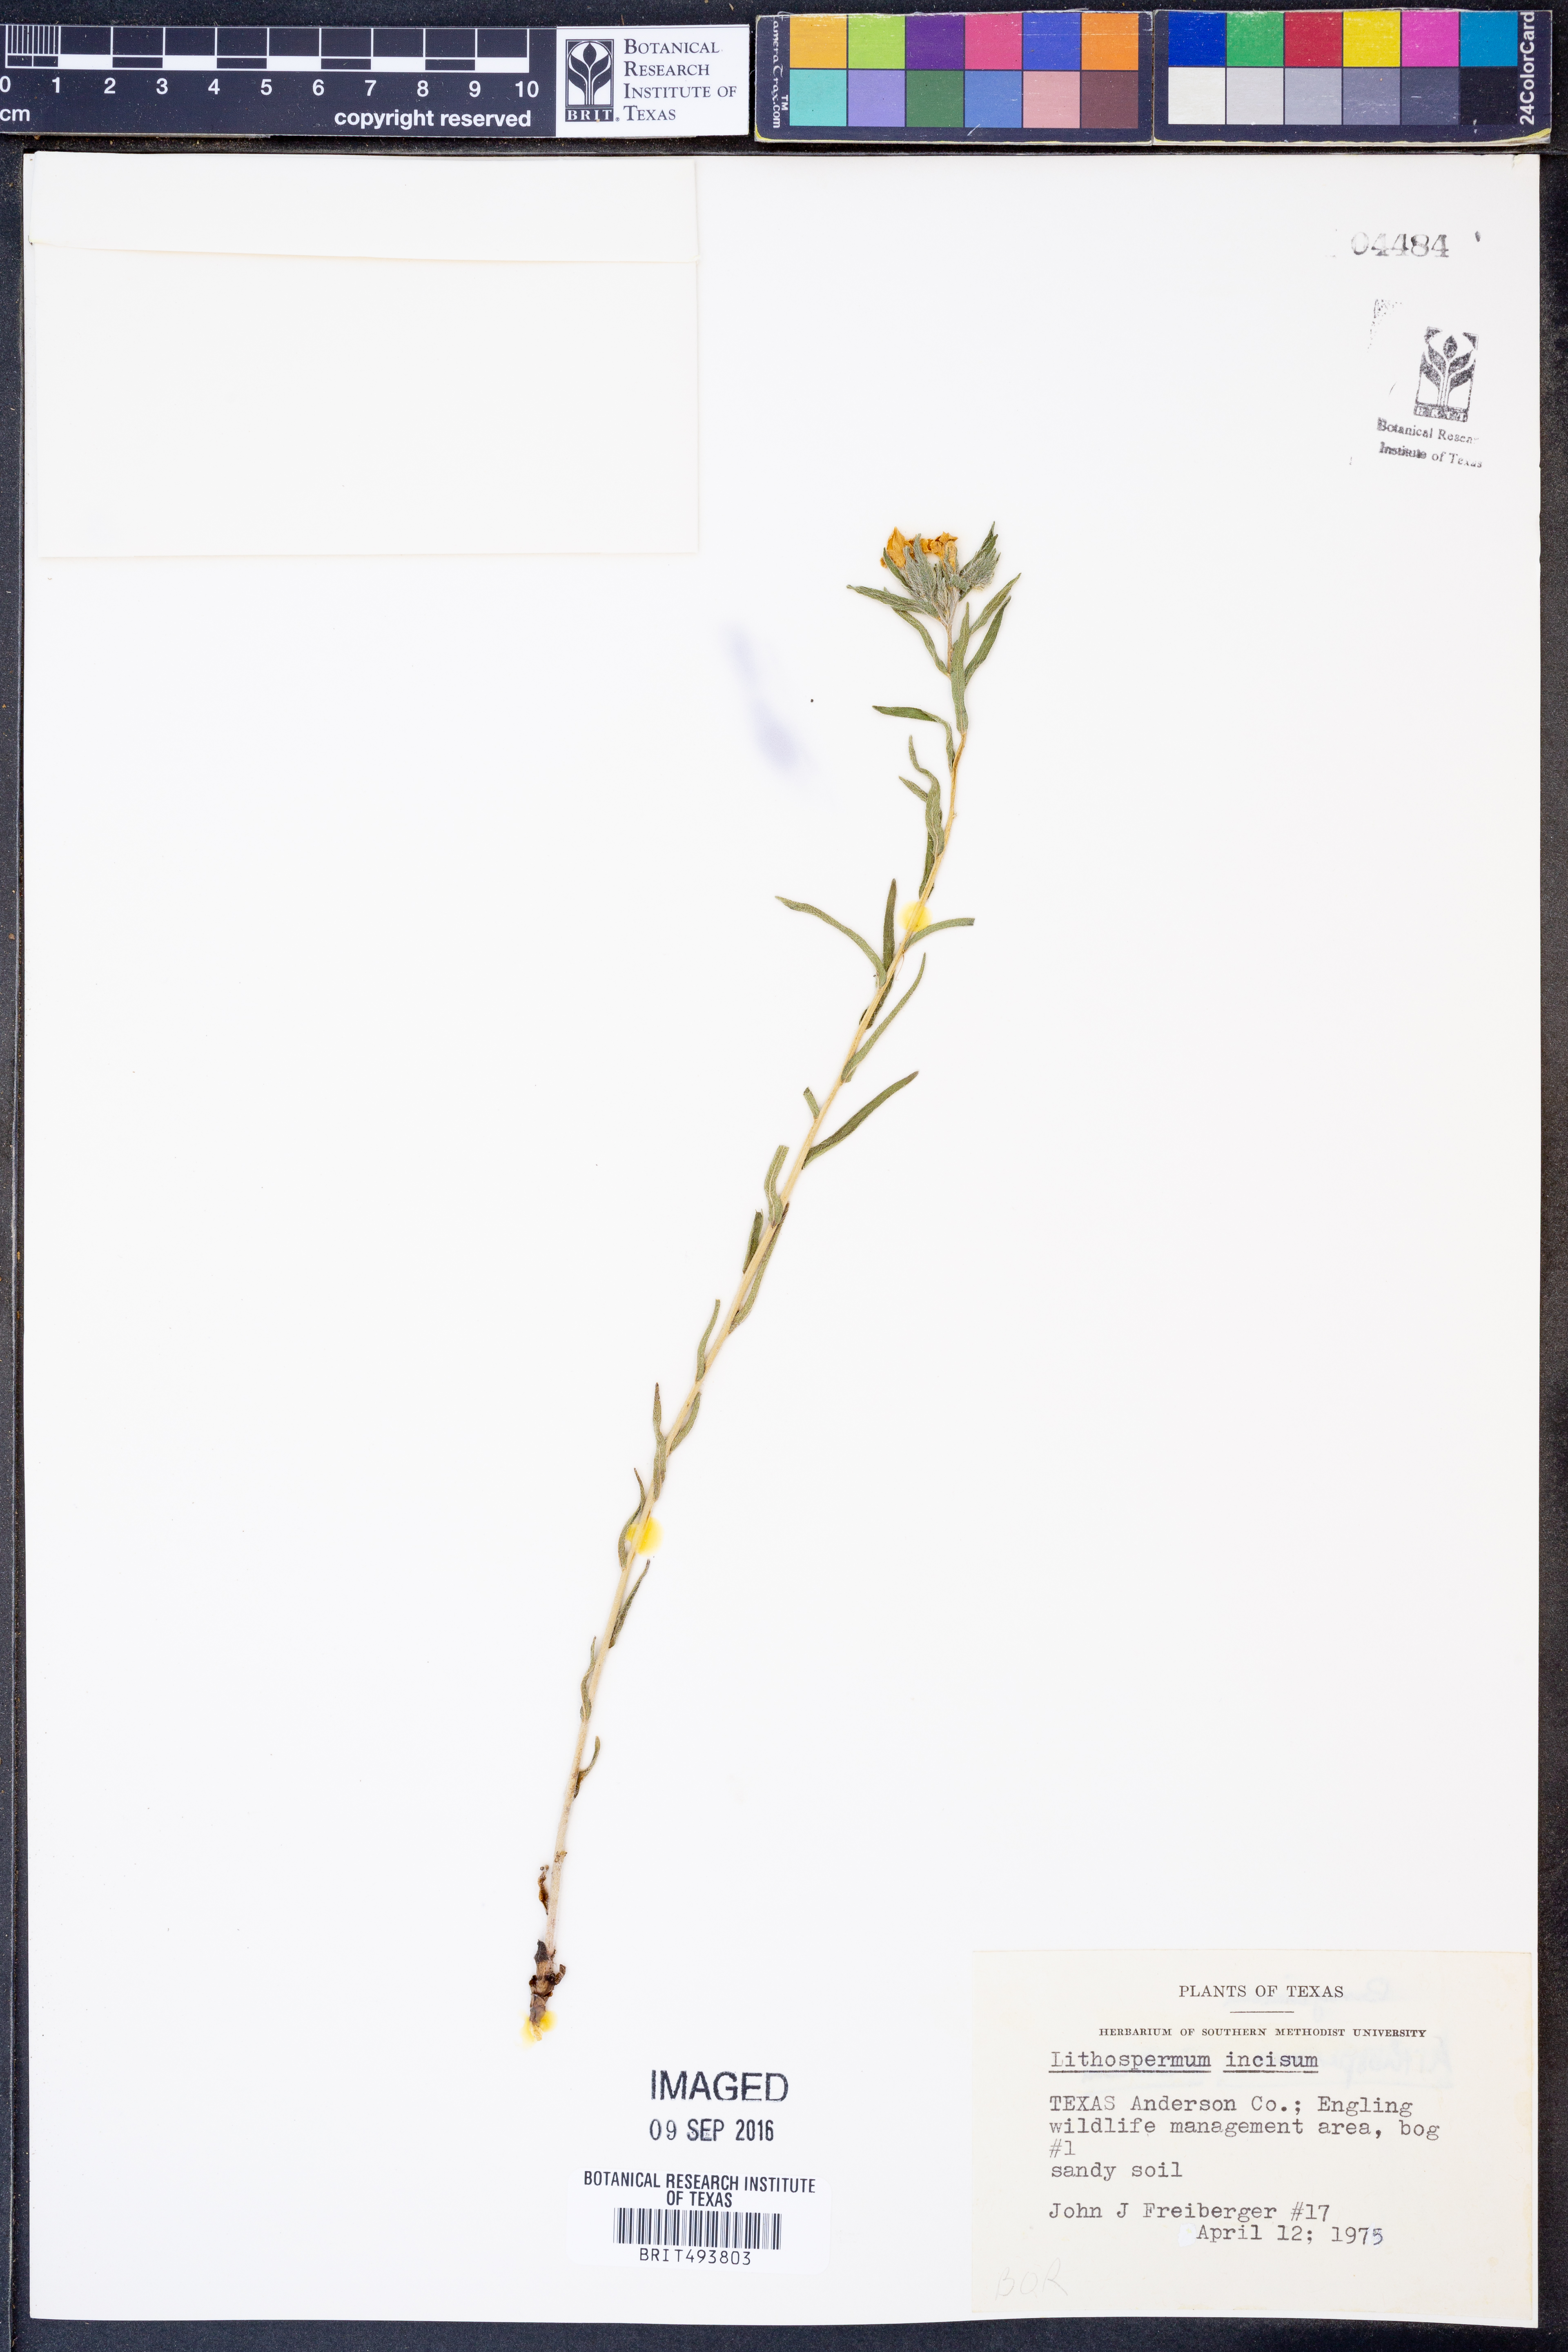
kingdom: Plantae
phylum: Tracheophyta
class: Magnoliopsida
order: Boraginales
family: Boraginaceae
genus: Lithospermum
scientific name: Lithospermum incisum
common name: Fringed gromwell
